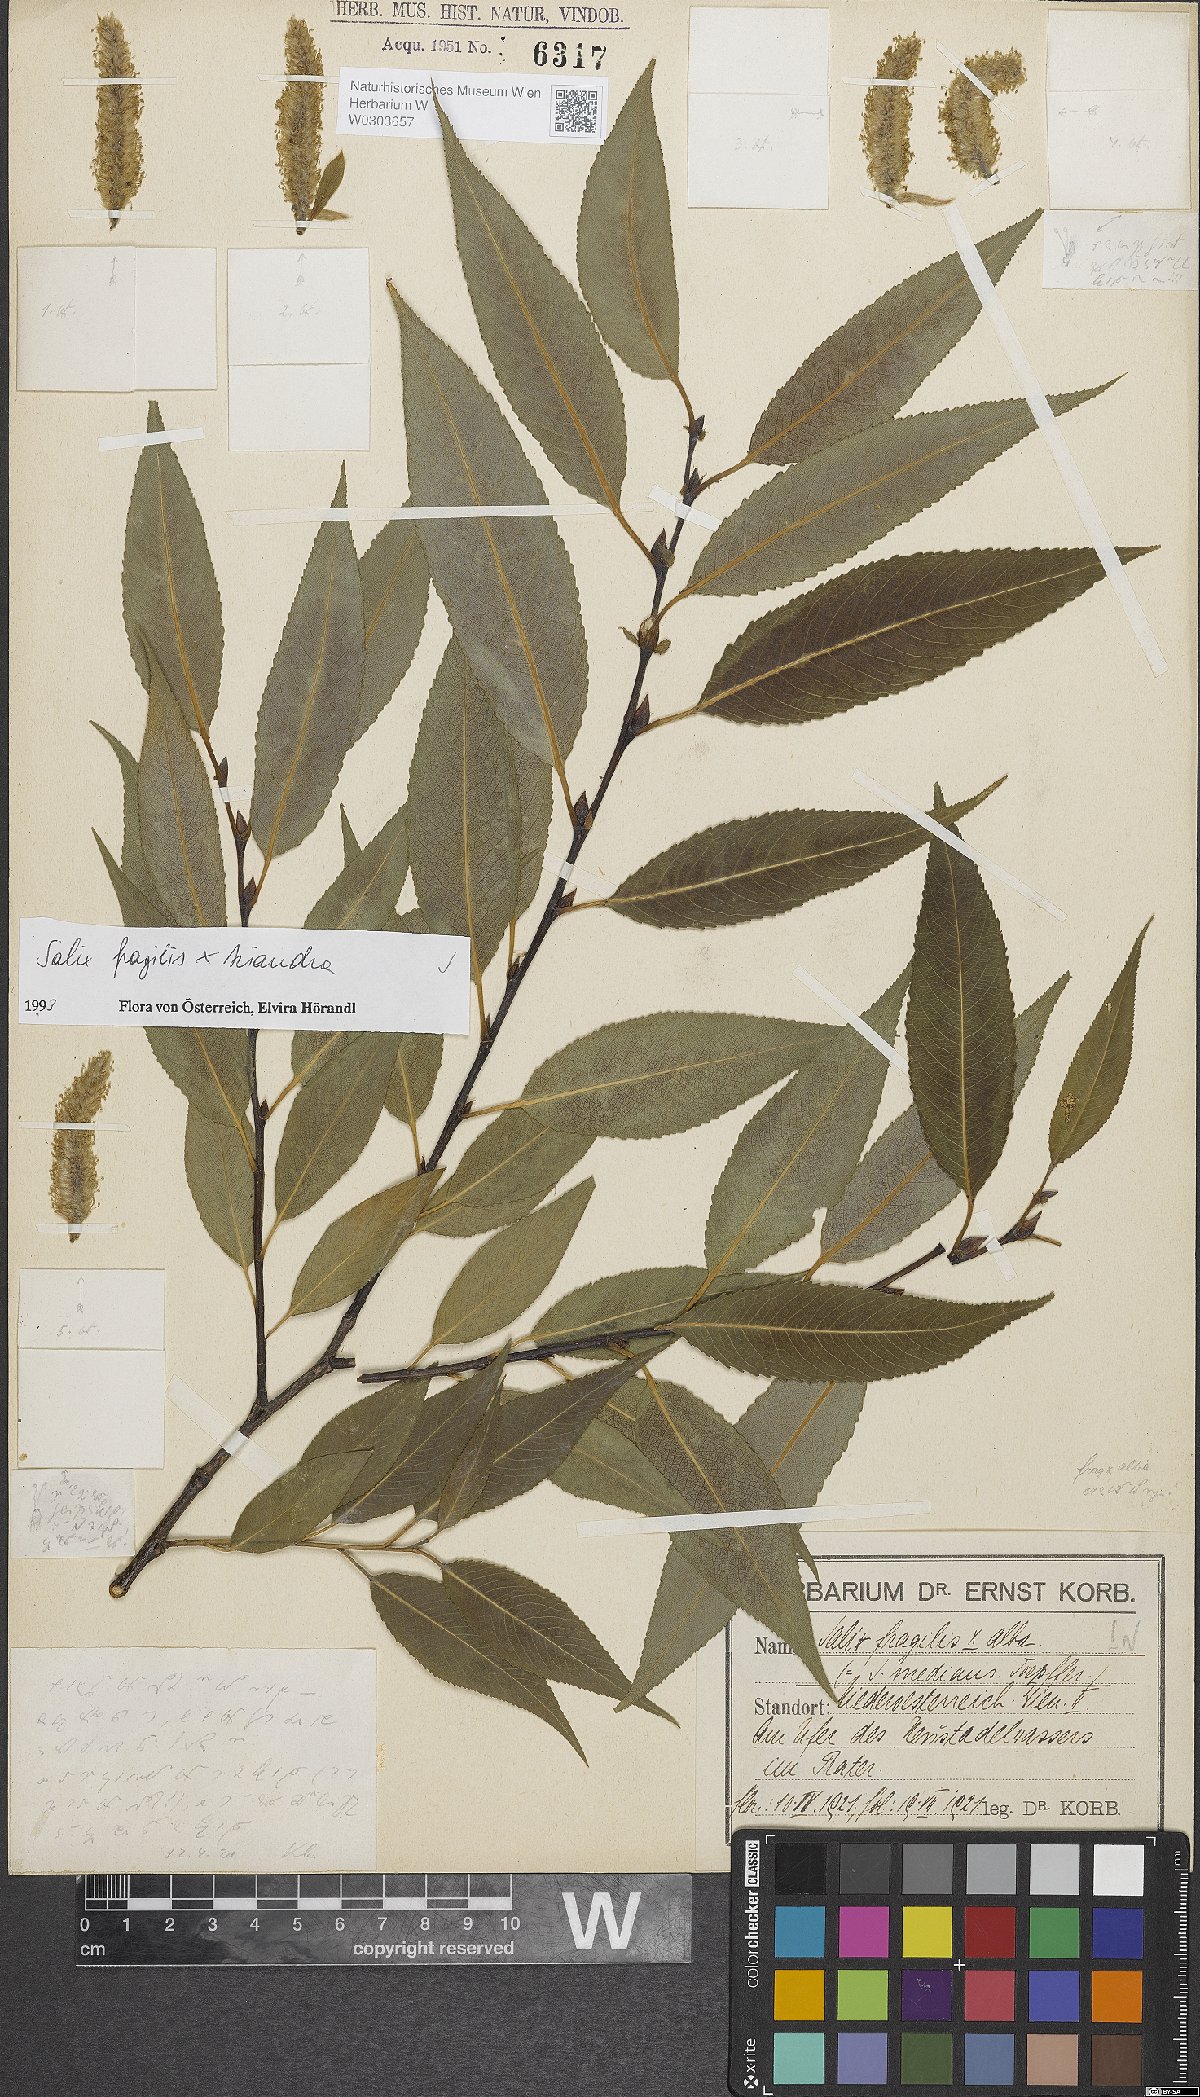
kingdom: Plantae
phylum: Tracheophyta
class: Magnoliopsida
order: Malpighiales
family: Salicaceae
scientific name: Salicaceae
